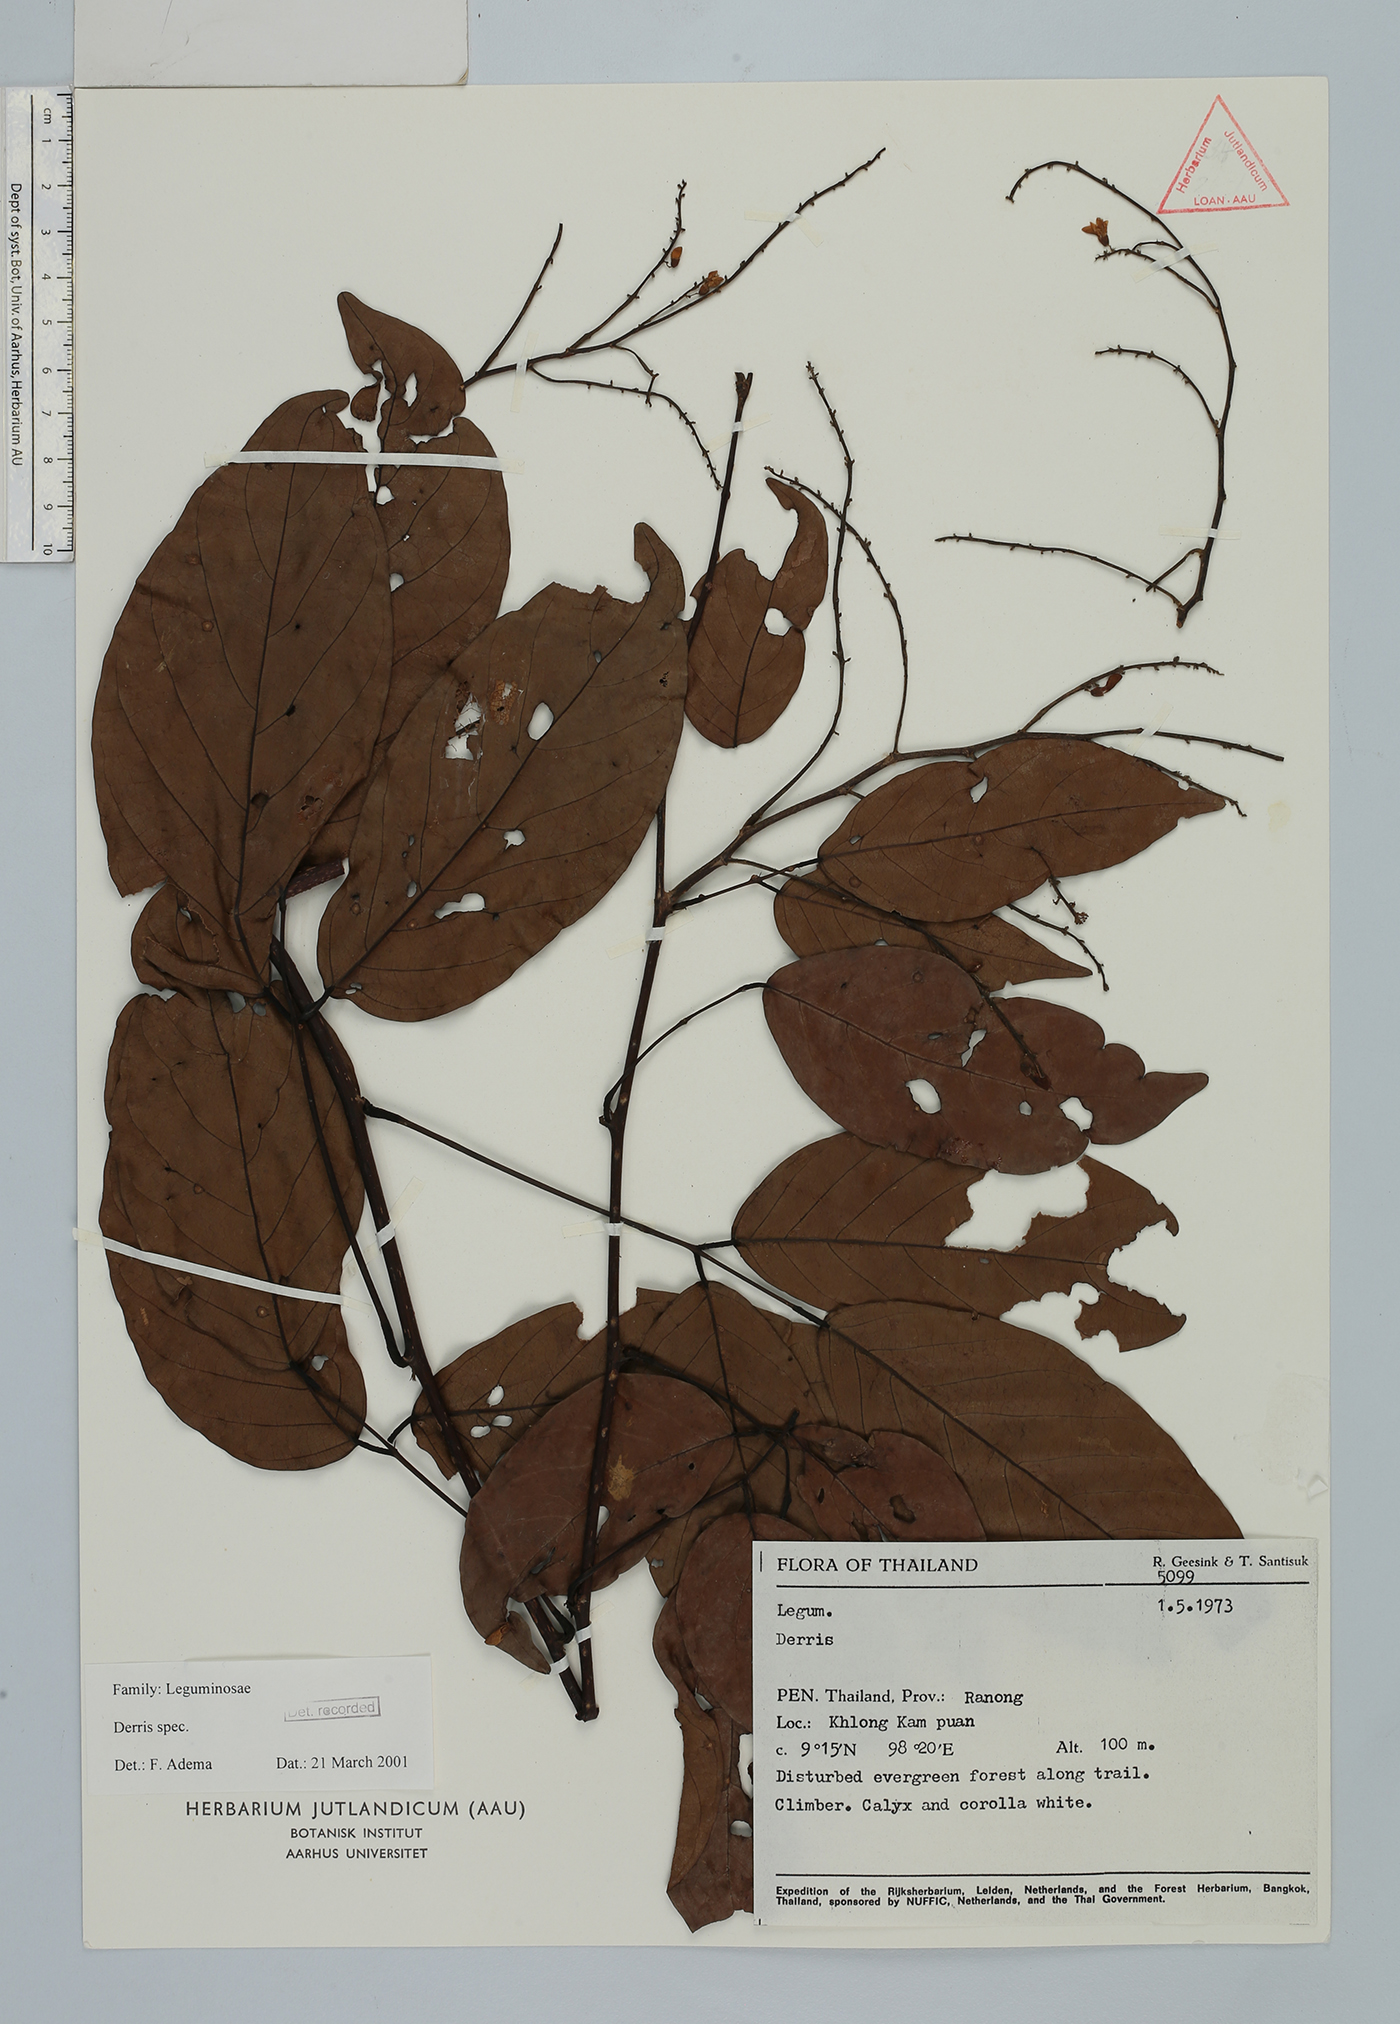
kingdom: Plantae
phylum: Tracheophyta
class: Magnoliopsida
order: Fabales
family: Fabaceae
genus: Derris
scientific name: Derris
